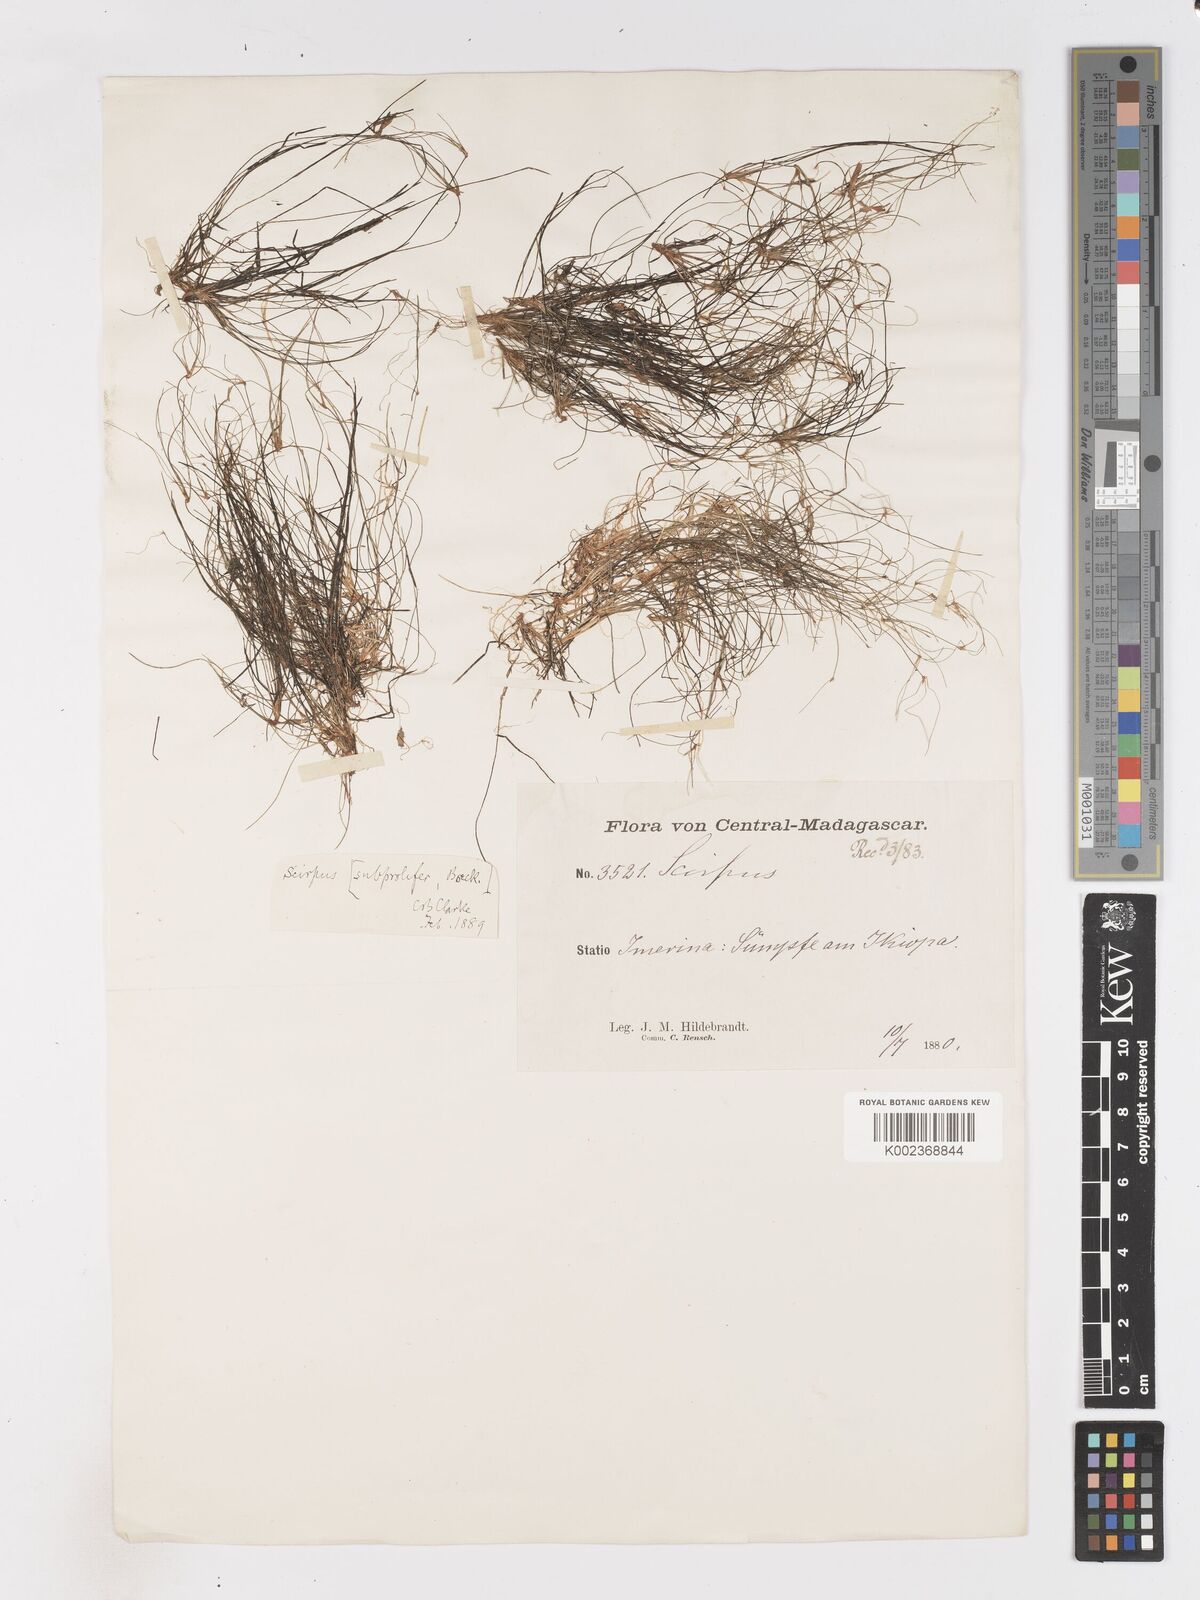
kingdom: Plantae
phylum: Tracheophyta
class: Liliopsida
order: Poales
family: Cyperaceae
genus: Isolepis
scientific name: Isolepis tenuissima
